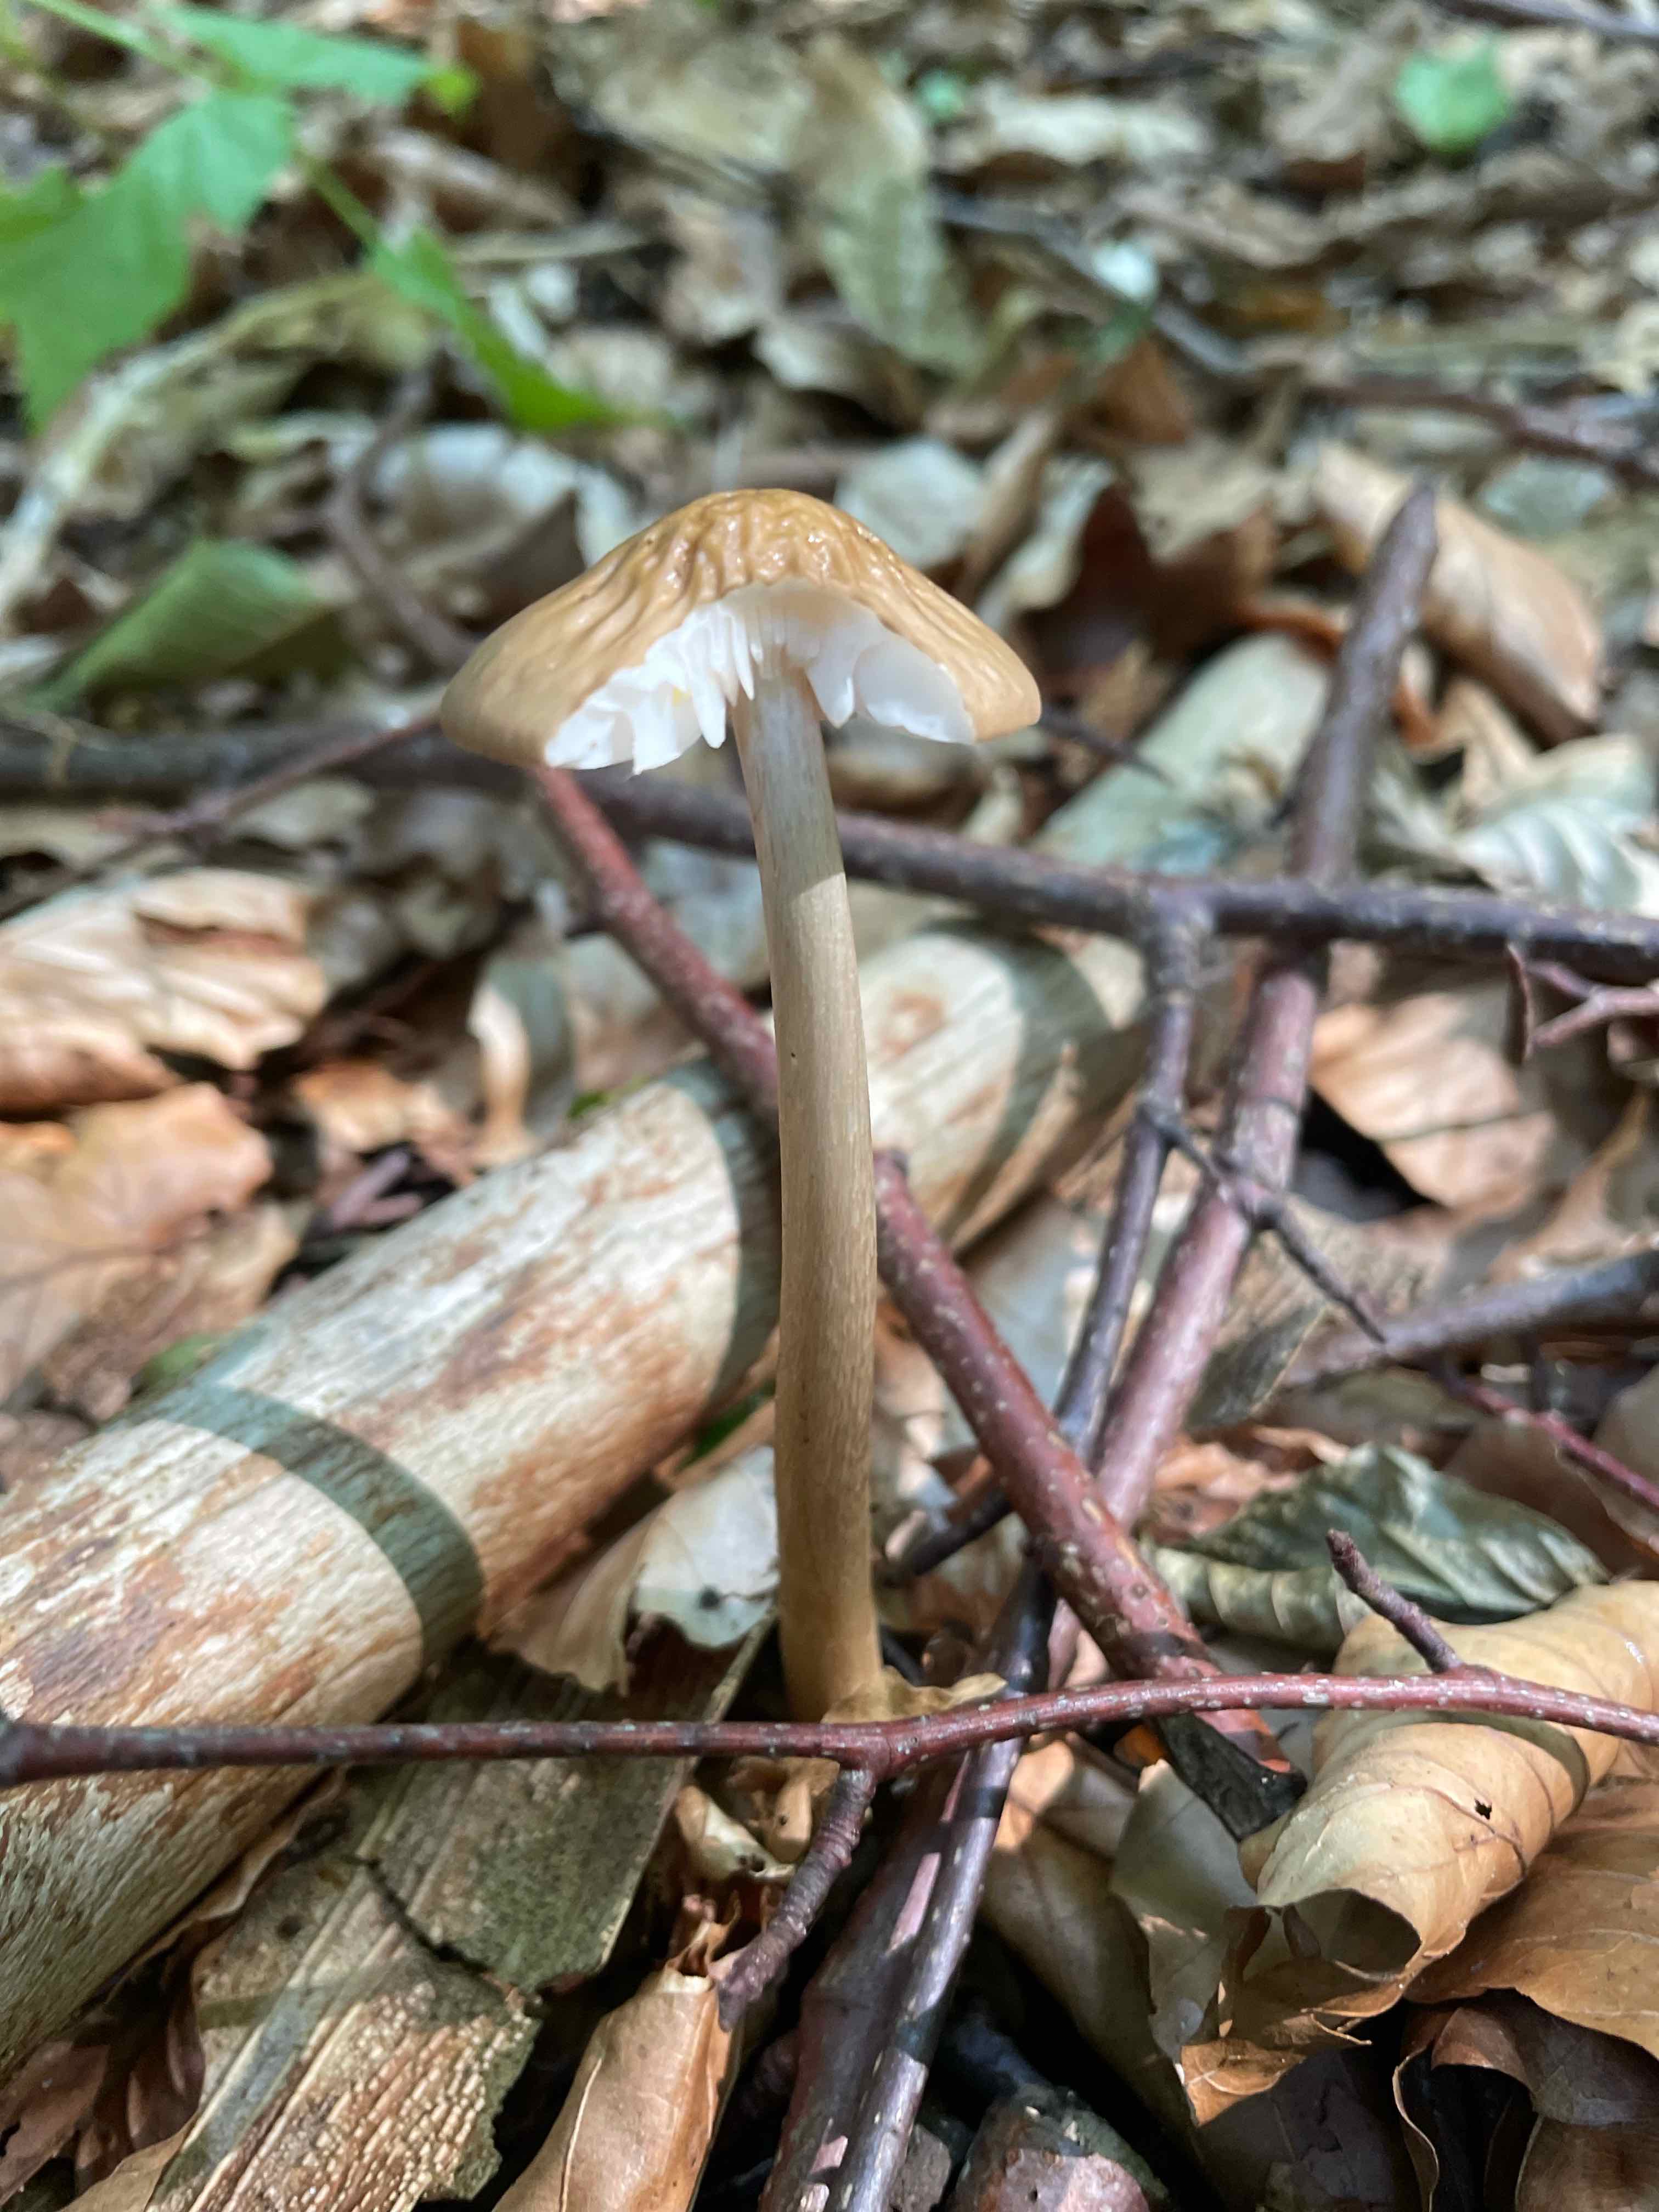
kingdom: Fungi
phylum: Basidiomycota
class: Agaricomycetes
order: Agaricales
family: Physalacriaceae
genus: Hymenopellis
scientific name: Hymenopellis radicata
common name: almindelig pælerodshat
